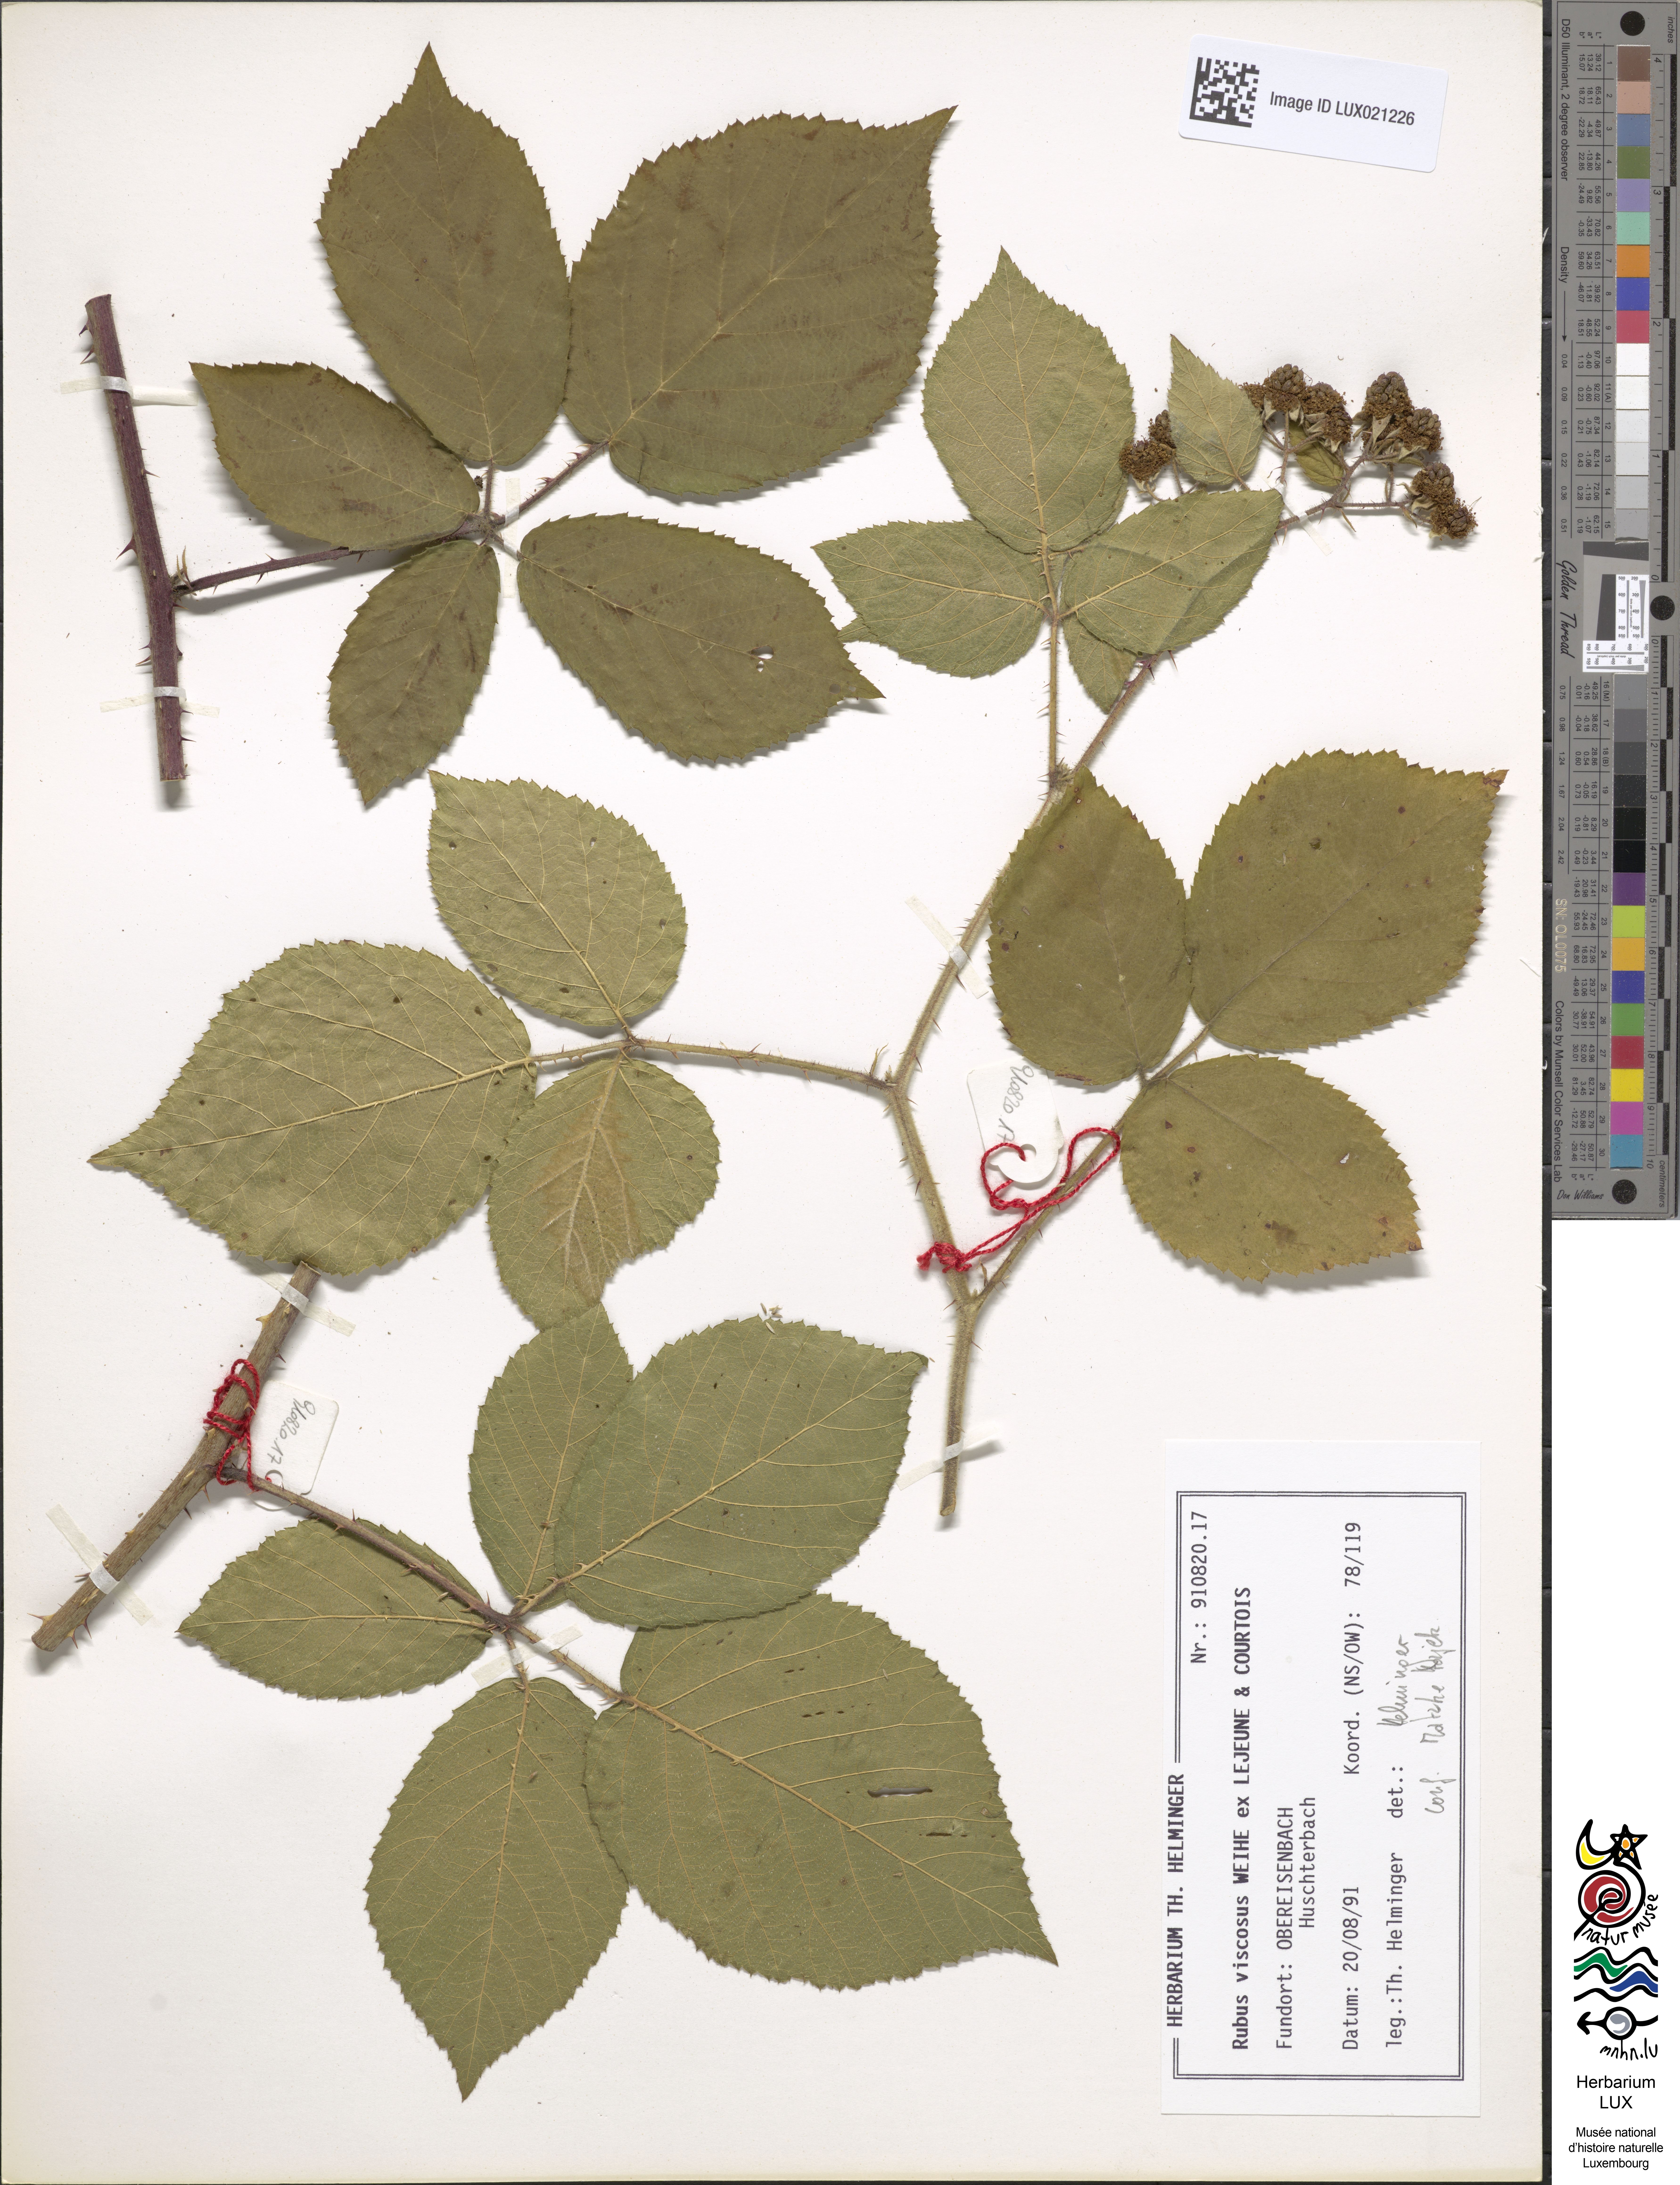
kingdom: Plantae
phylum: Tracheophyta
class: Magnoliopsida
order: Rosales
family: Rosaceae
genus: Rubus
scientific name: Rubus viscosus
